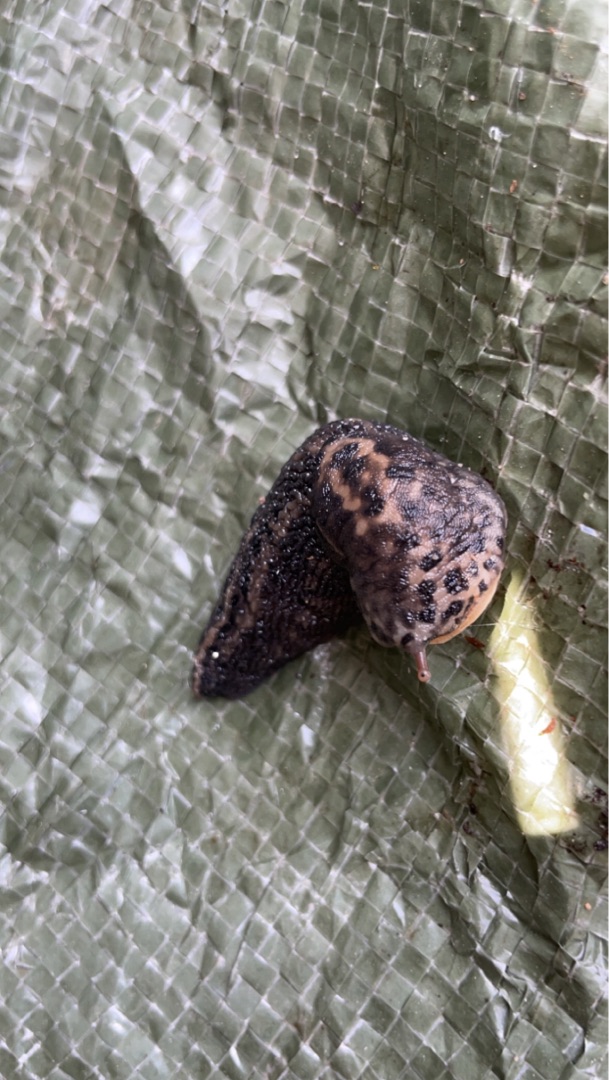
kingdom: Animalia
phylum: Mollusca
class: Gastropoda
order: Stylommatophora
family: Limacidae
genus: Limax
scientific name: Limax maximus
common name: Pantersnegl
